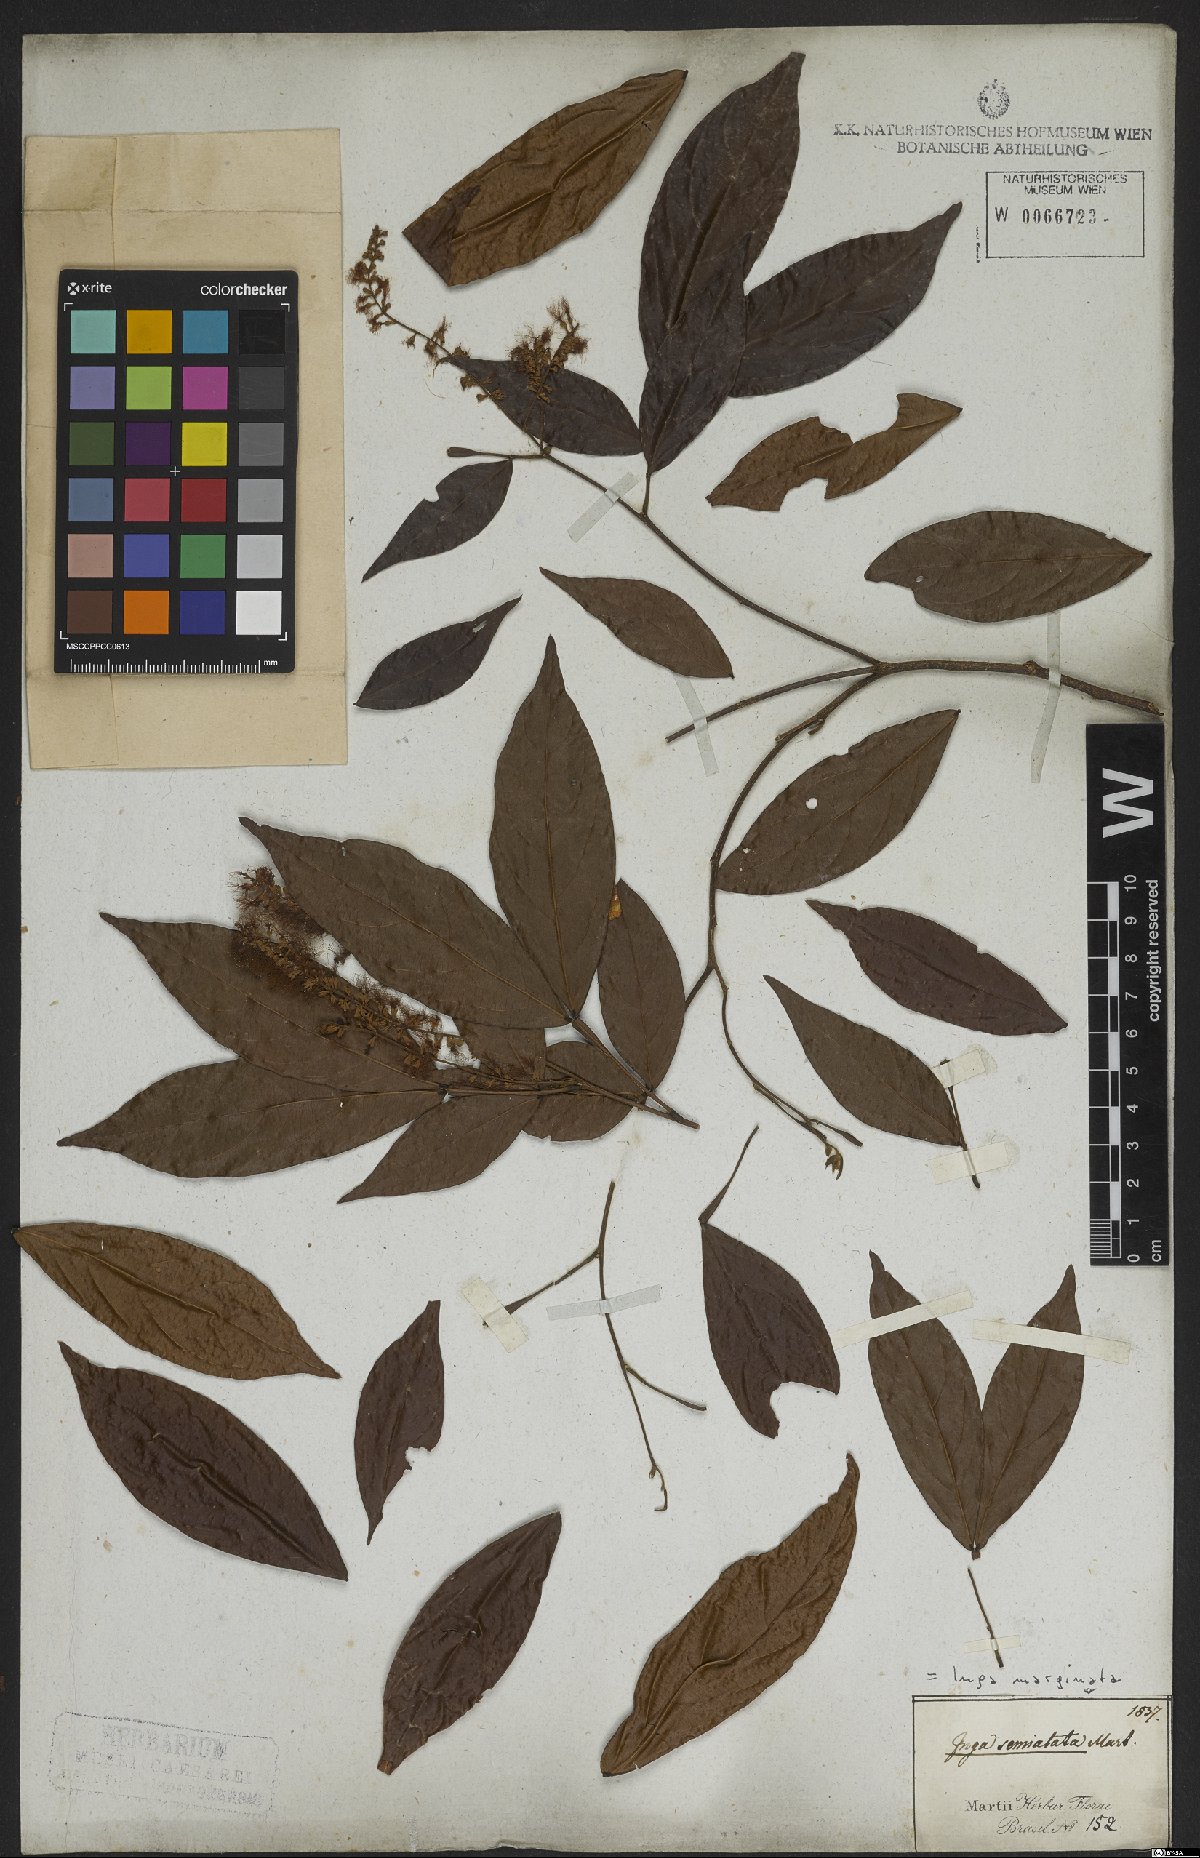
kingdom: Plantae
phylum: Tracheophyta
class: Magnoliopsida
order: Fabales
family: Fabaceae
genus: Inga
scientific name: Inga marginata
